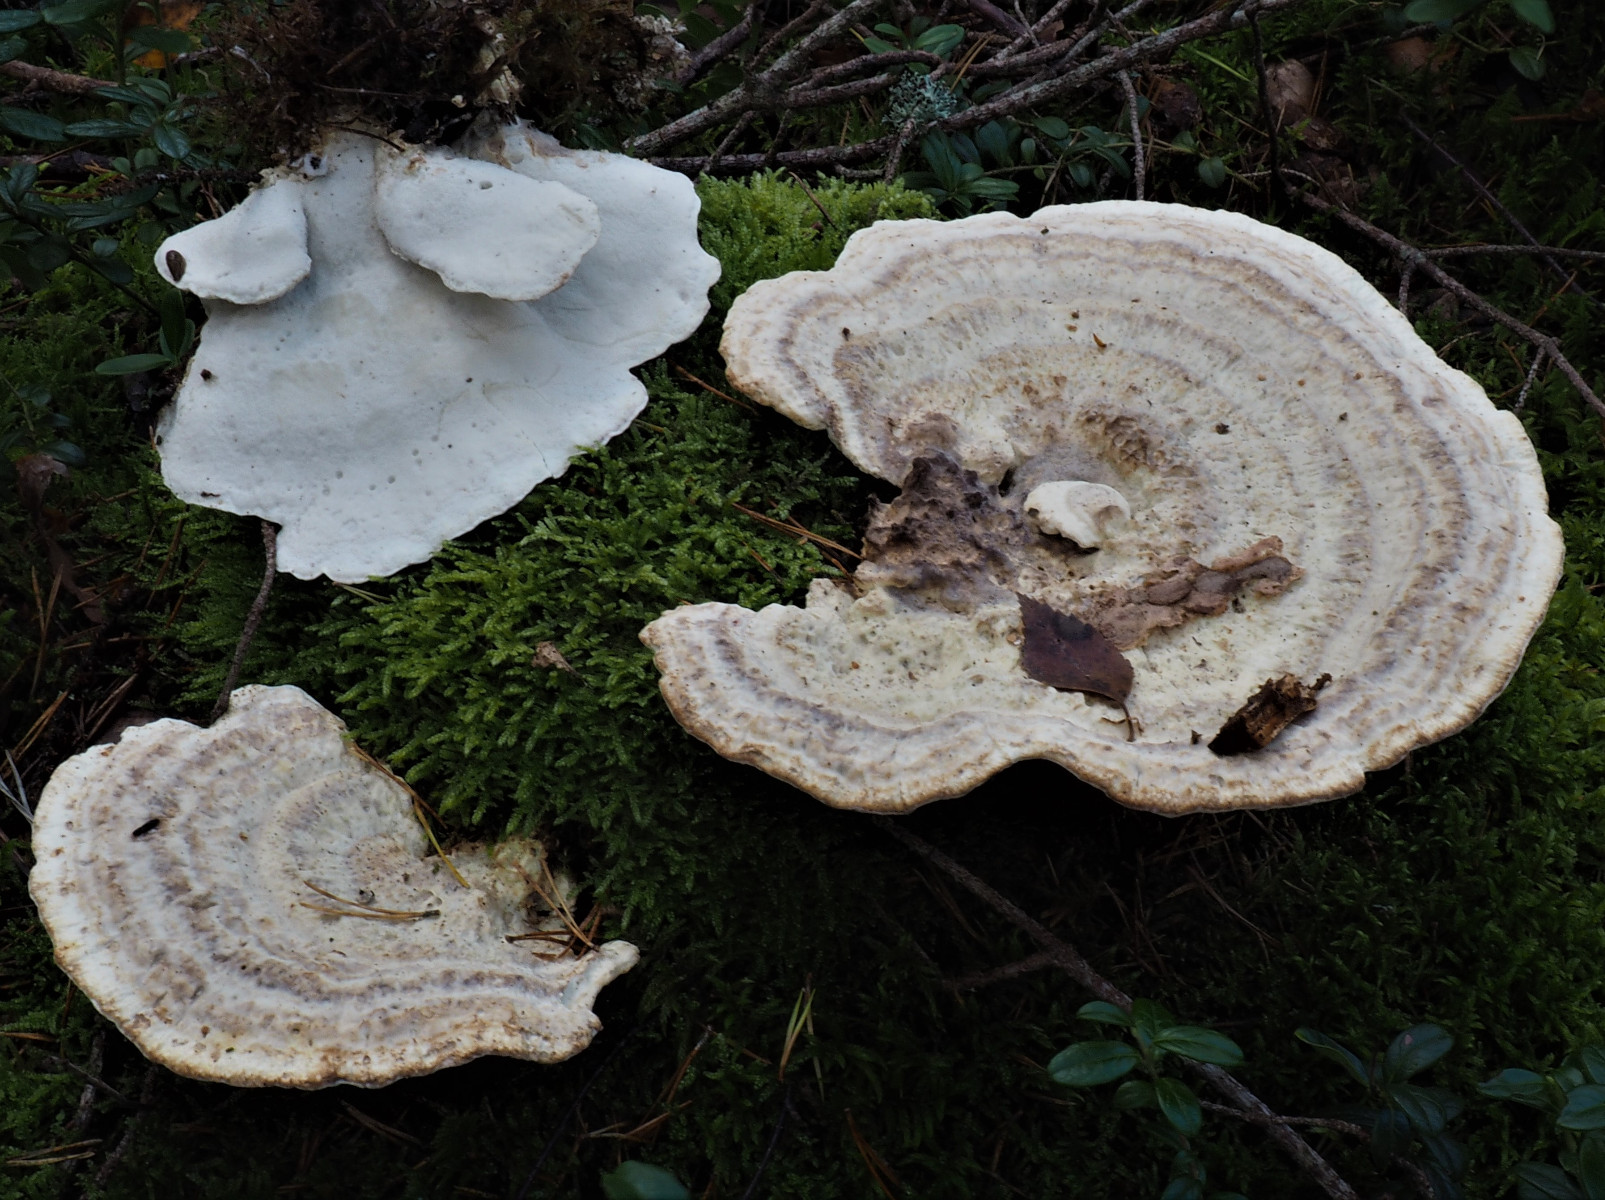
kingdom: Fungi
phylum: Basidiomycota
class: Agaricomycetes
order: Polyporales
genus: Calcipostia
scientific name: Calcipostia guttulata
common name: dråbe-kødporesvamp
